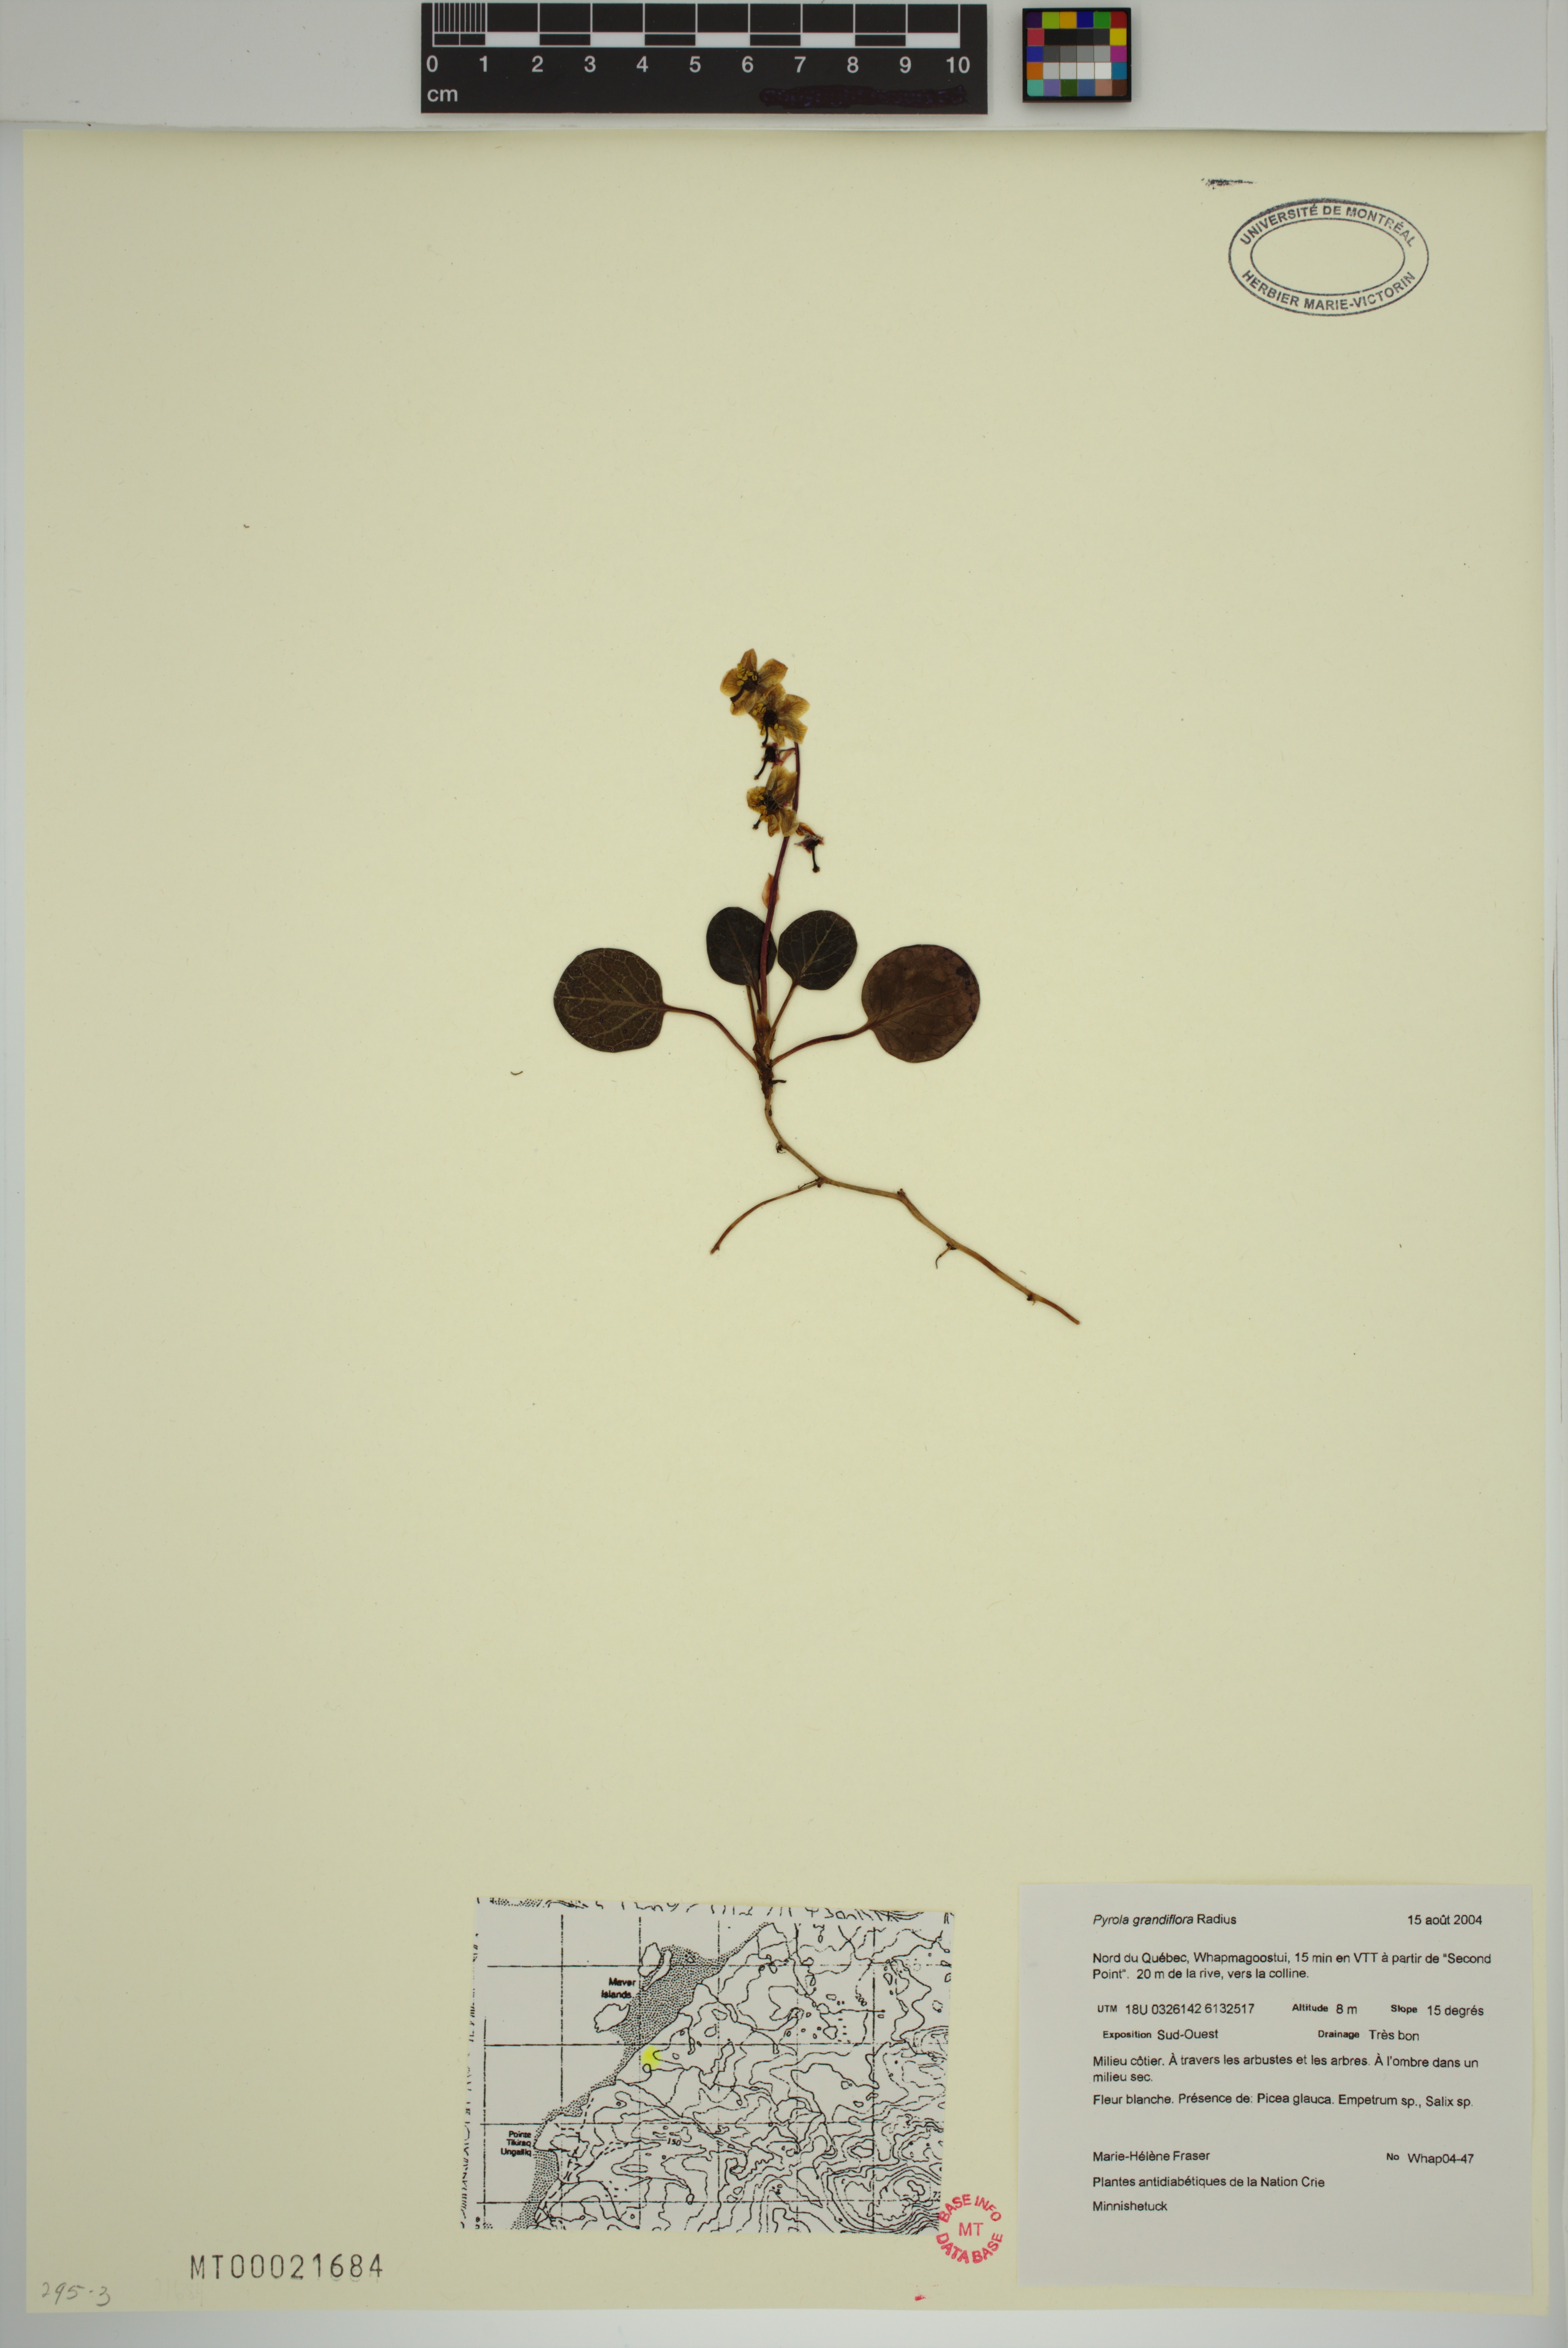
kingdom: Plantae
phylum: Tracheophyta
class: Magnoliopsida
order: Ericales
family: Ericaceae
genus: Pyrola
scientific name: Pyrola grandiflora
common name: Arctic pyrola
